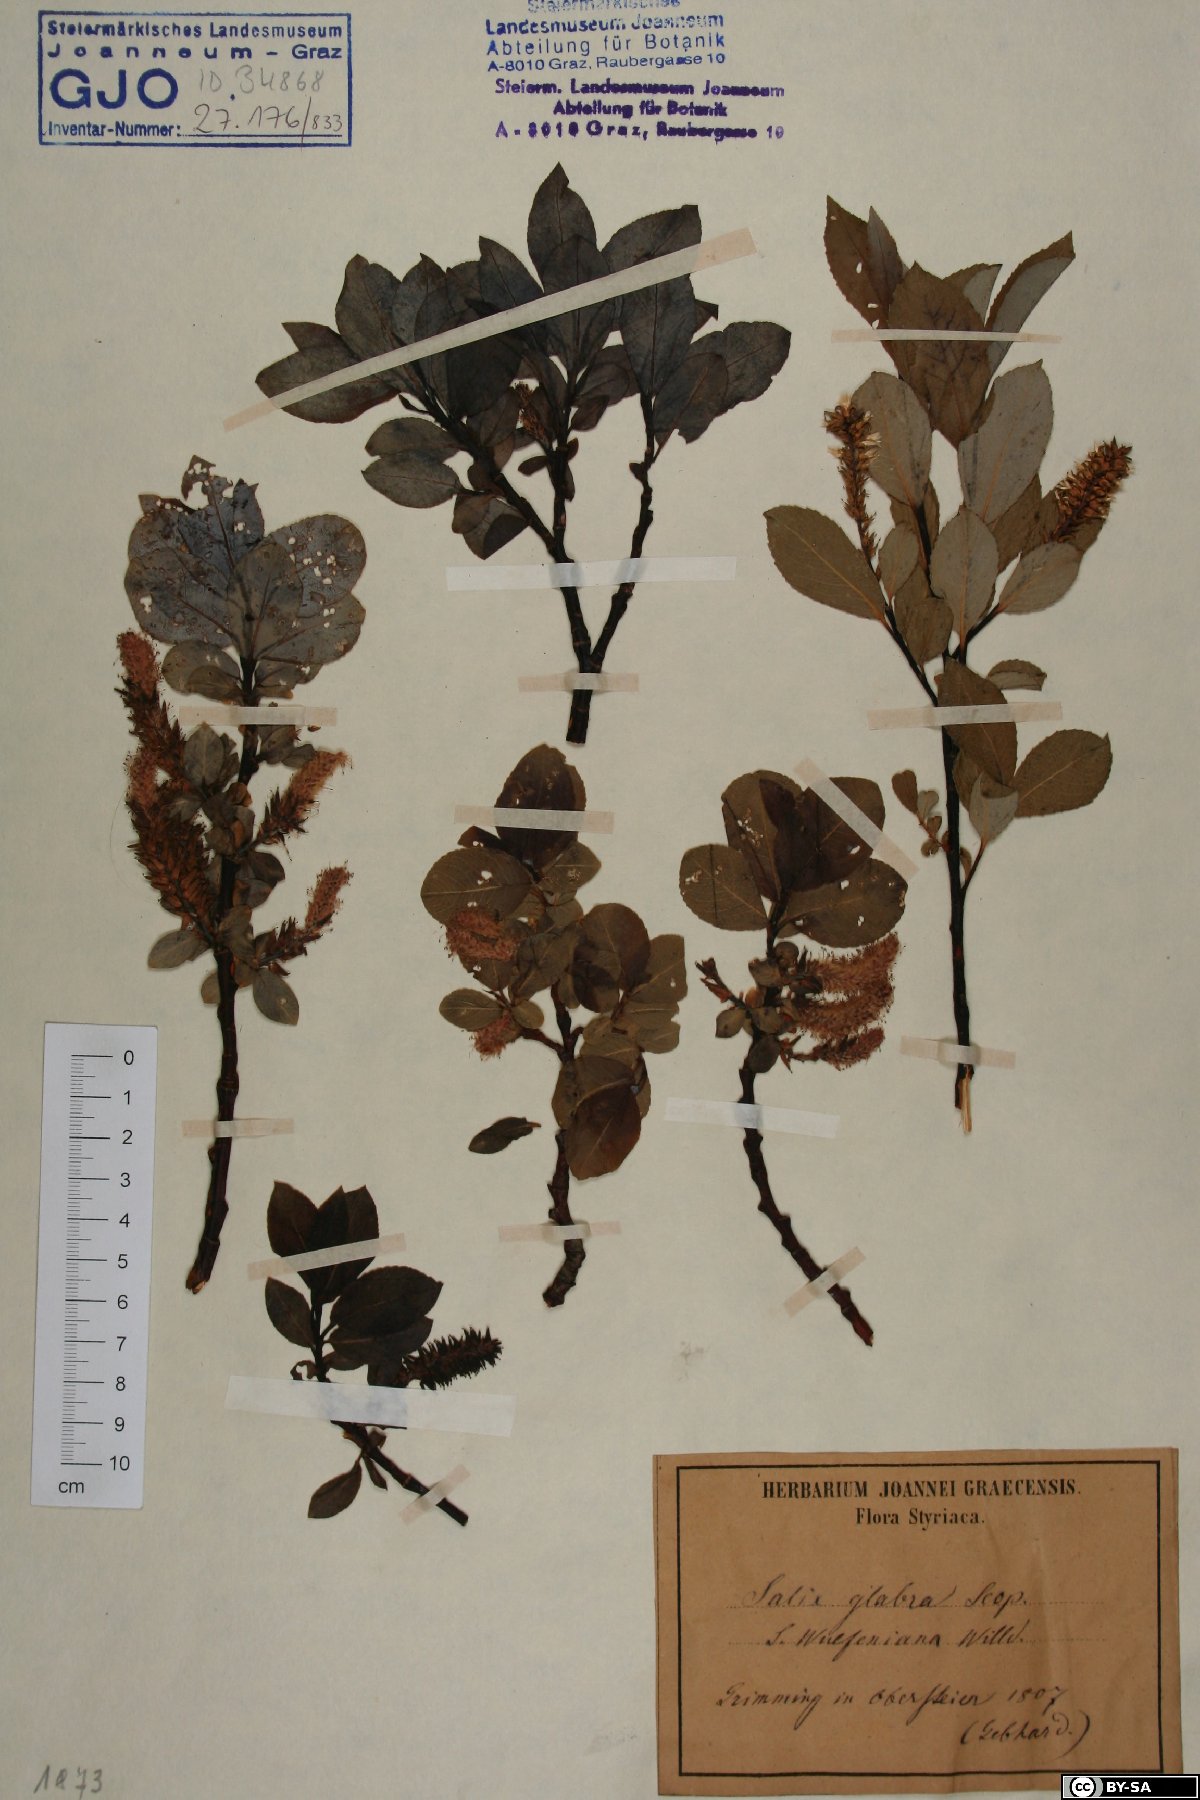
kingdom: Plantae
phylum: Tracheophyta
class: Magnoliopsida
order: Malpighiales
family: Salicaceae
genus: Salix
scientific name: Salix glabra
